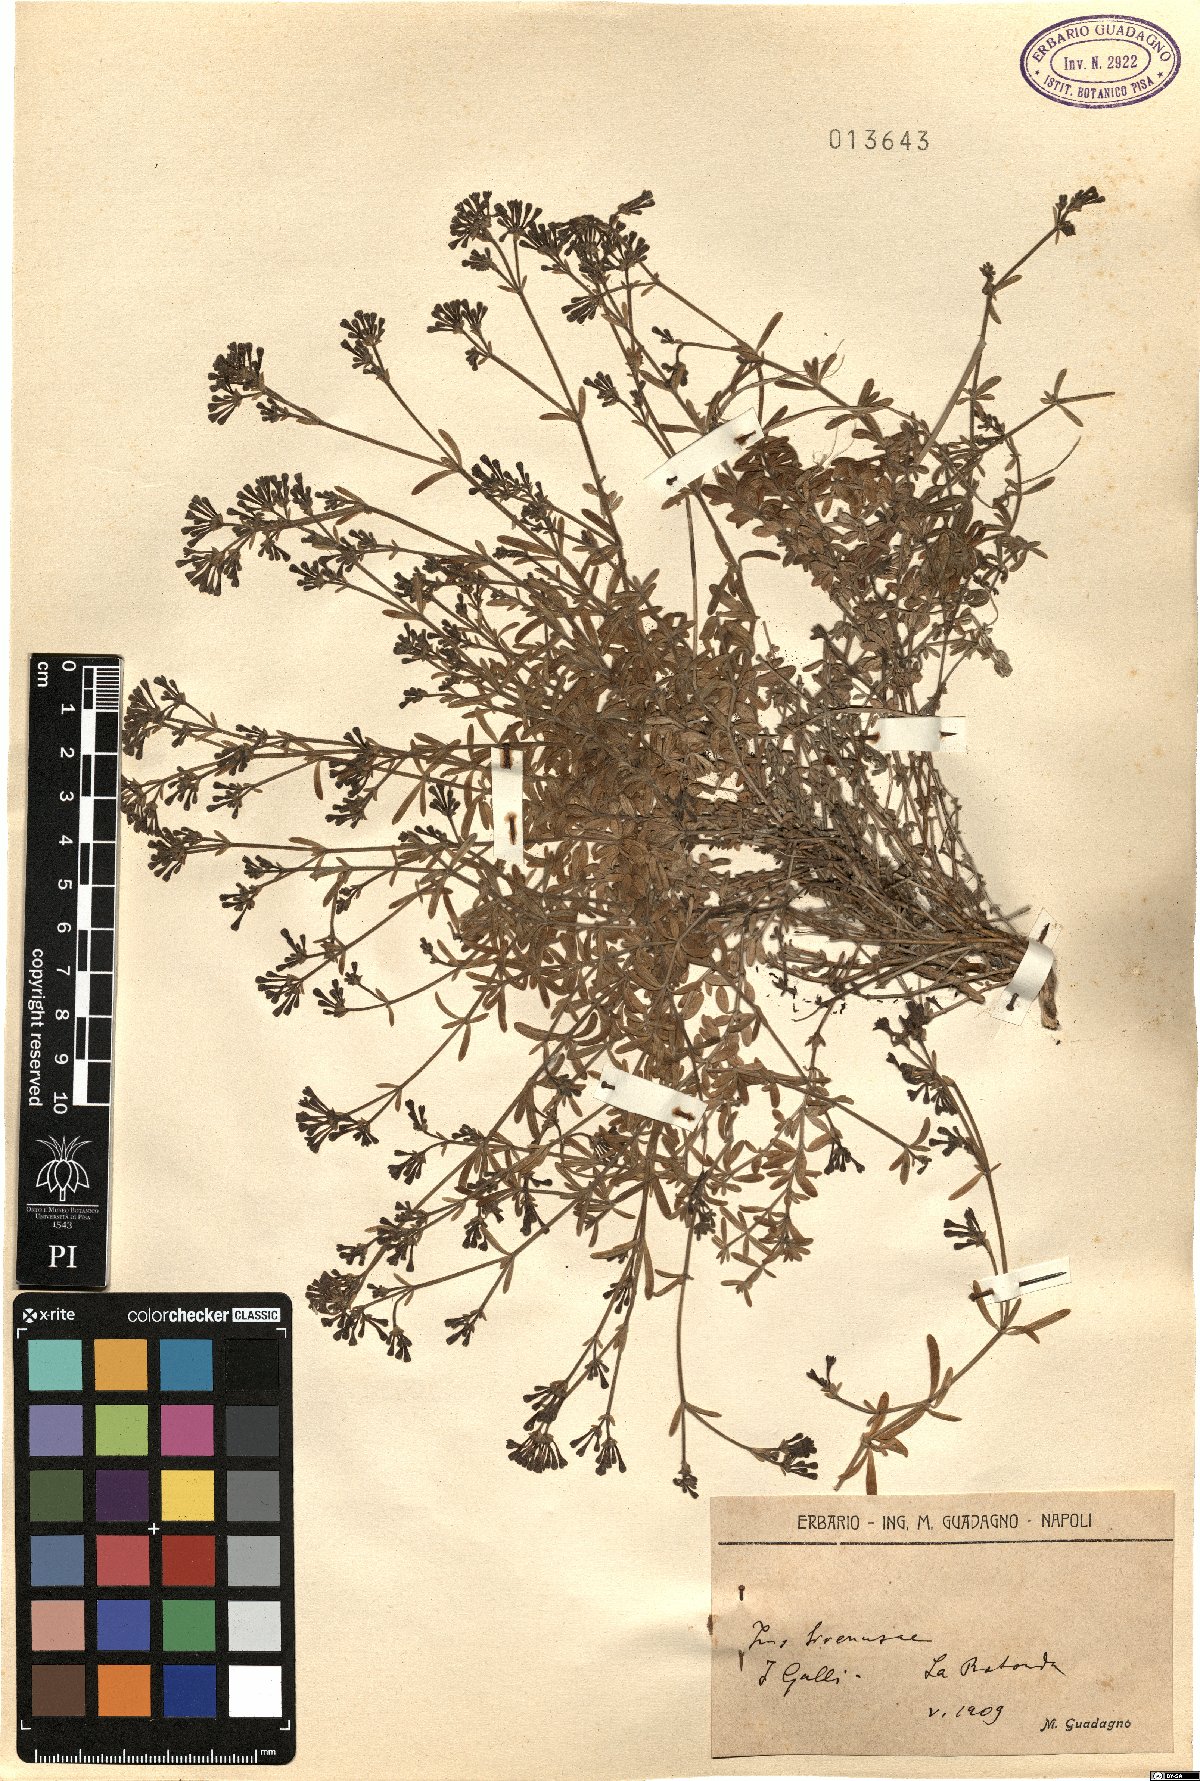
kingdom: Plantae
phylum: Tracheophyta
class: Magnoliopsida
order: Gentianales
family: Rubiaceae
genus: Asperula
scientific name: Asperula
